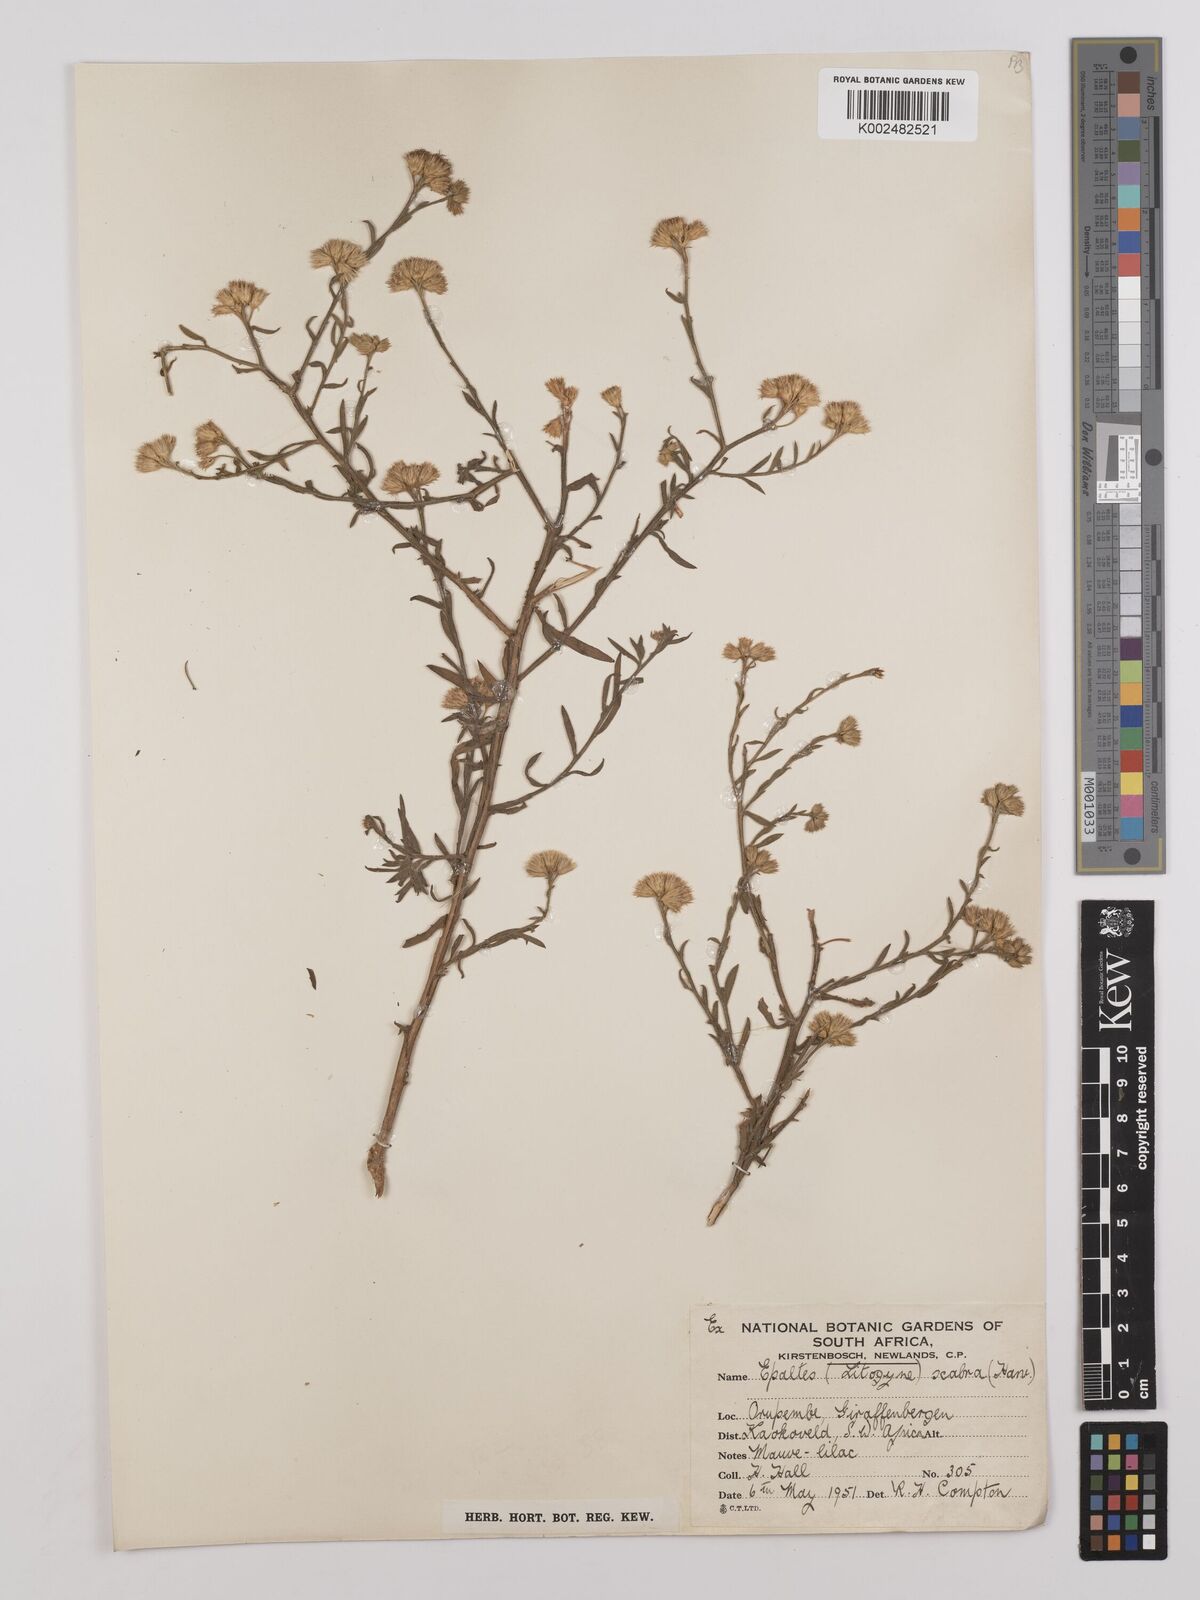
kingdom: Plantae
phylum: Tracheophyta
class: Magnoliopsida
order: Asterales
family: Asteraceae
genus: Litogyne
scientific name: Litogyne gariepina
